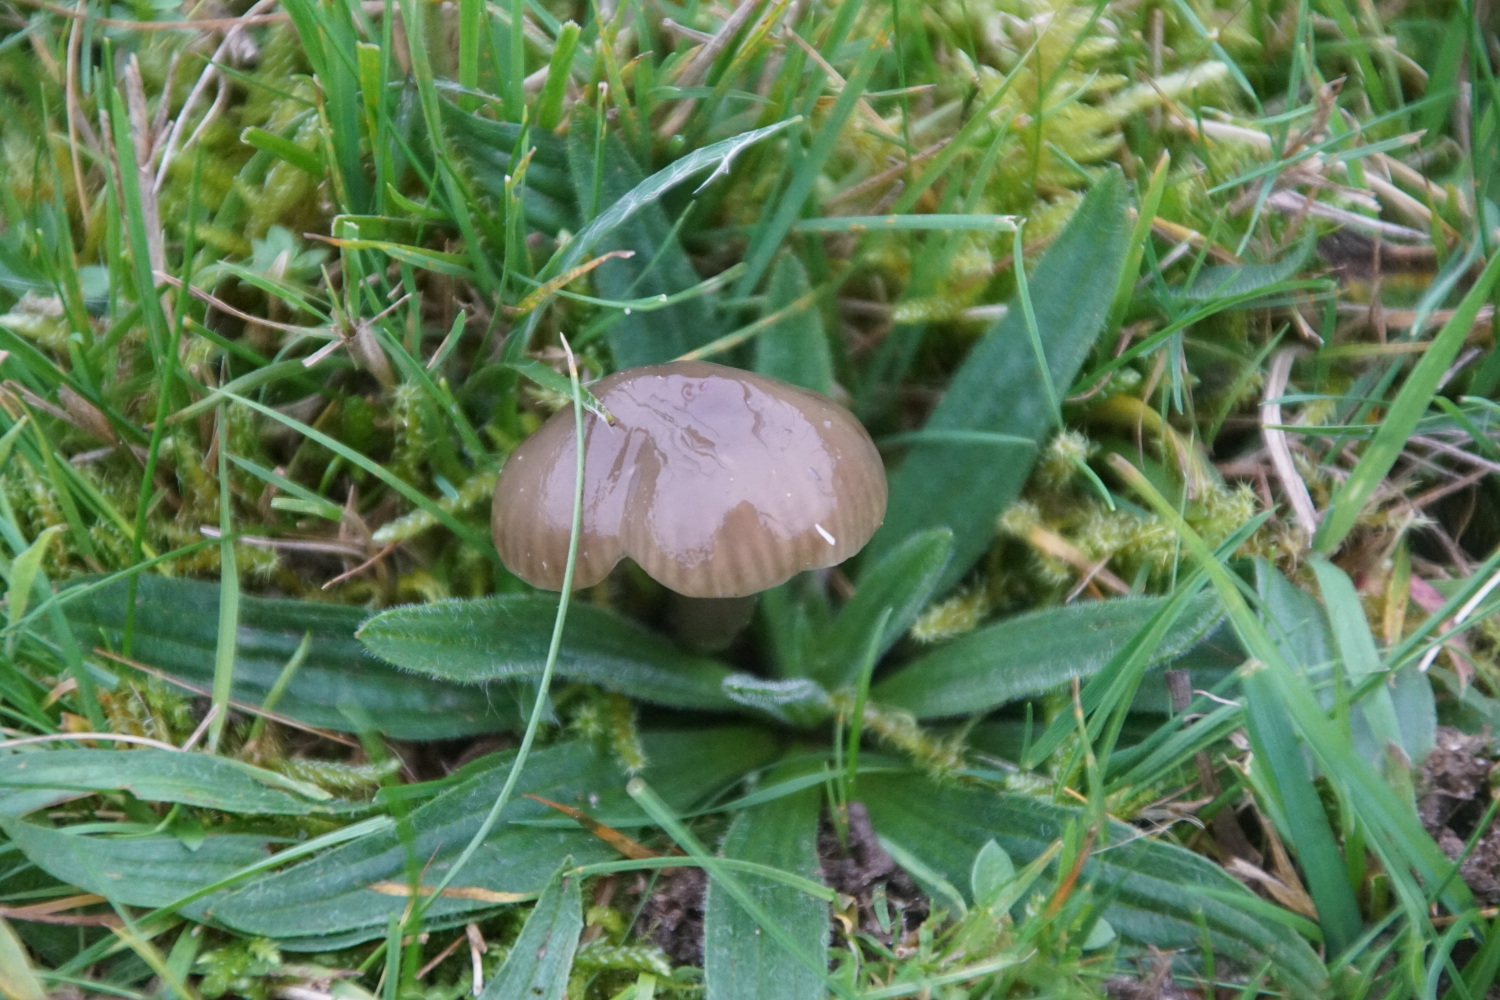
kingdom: Fungi
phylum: Basidiomycota
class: Agaricomycetes
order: Agaricales
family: Hygrophoraceae
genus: Gliophorus
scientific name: Gliophorus irrigatus
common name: slimet vokshat
